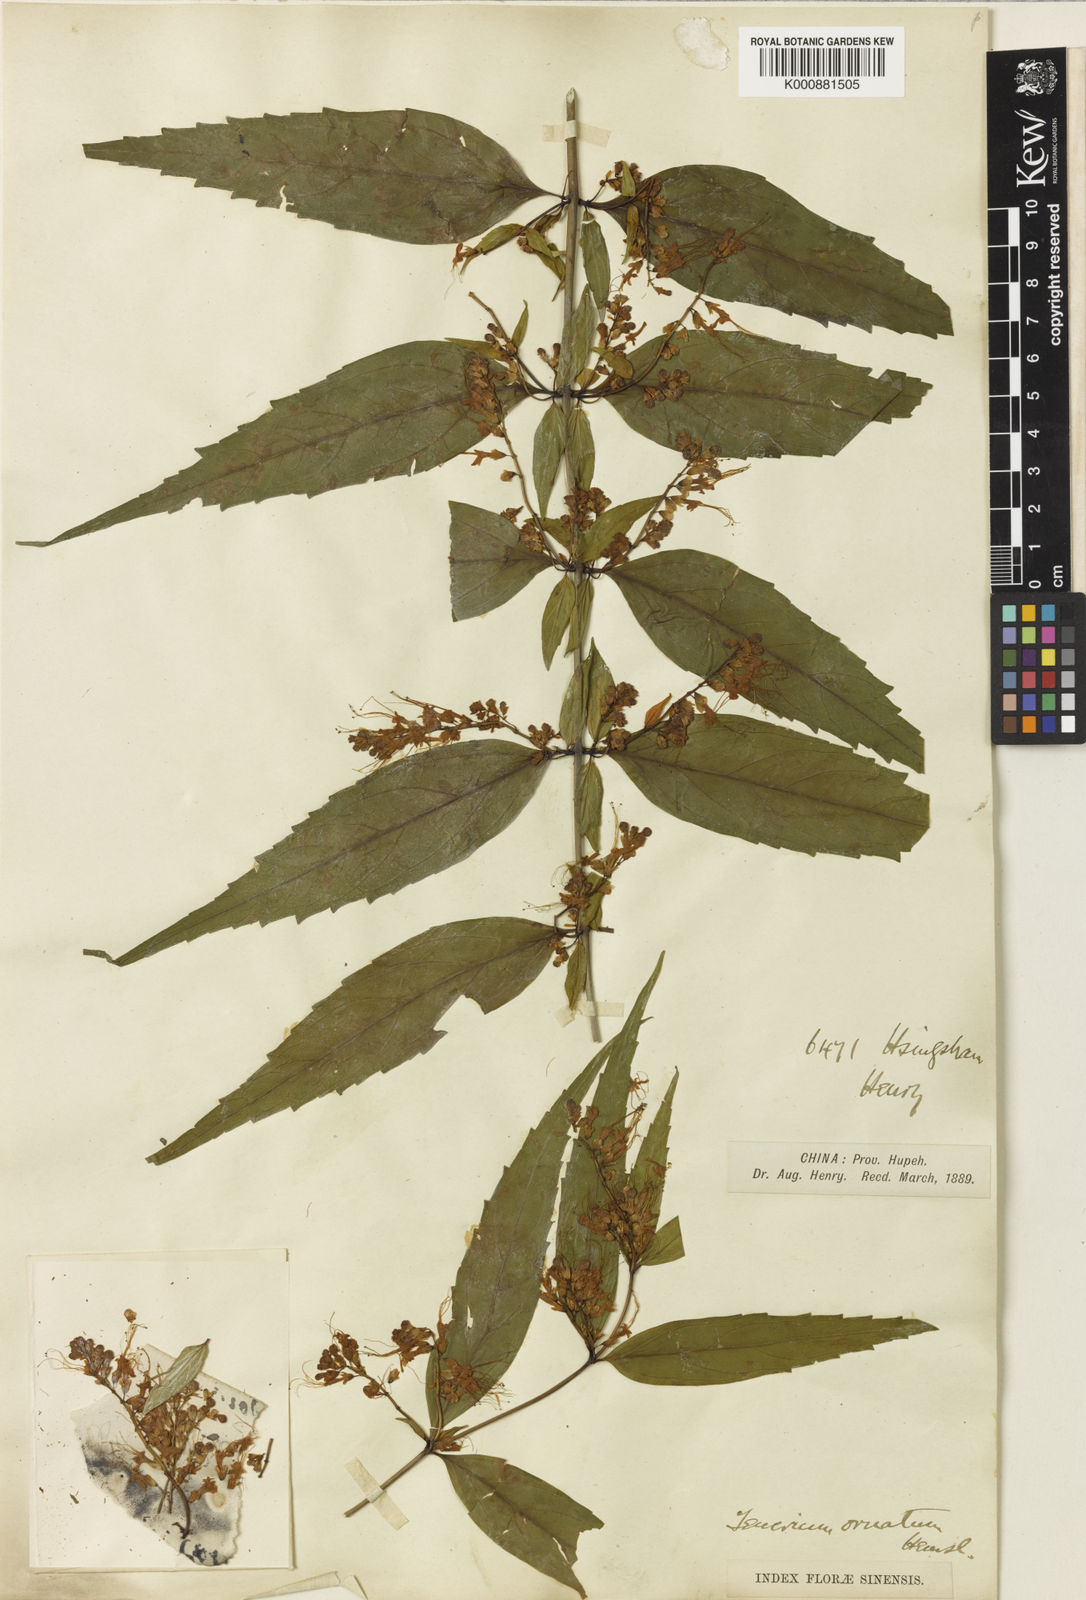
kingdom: Plantae
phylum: Tracheophyta
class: Magnoliopsida
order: Lamiales
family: Lamiaceae
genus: Teucrium
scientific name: Teucrium ornatum
